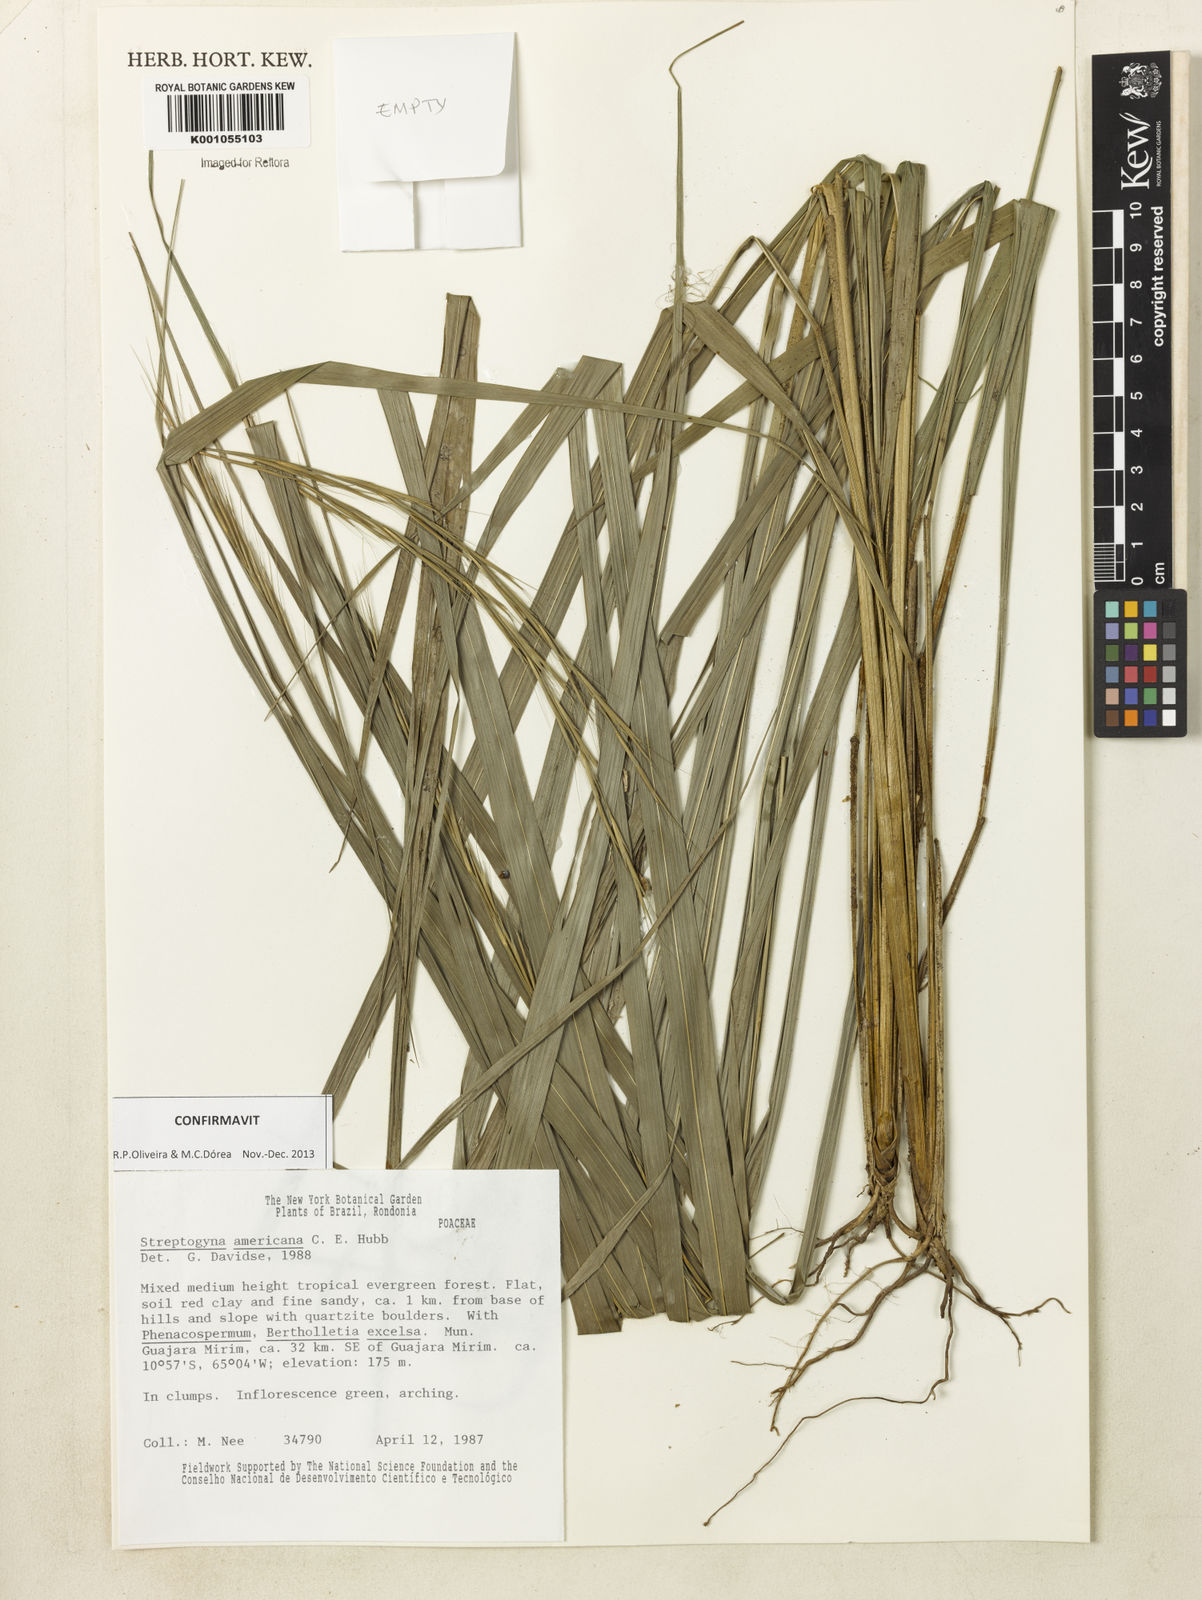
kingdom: Plantae
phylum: Tracheophyta
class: Liliopsida
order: Poales
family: Poaceae
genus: Streptogyna
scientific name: Streptogyna americana
